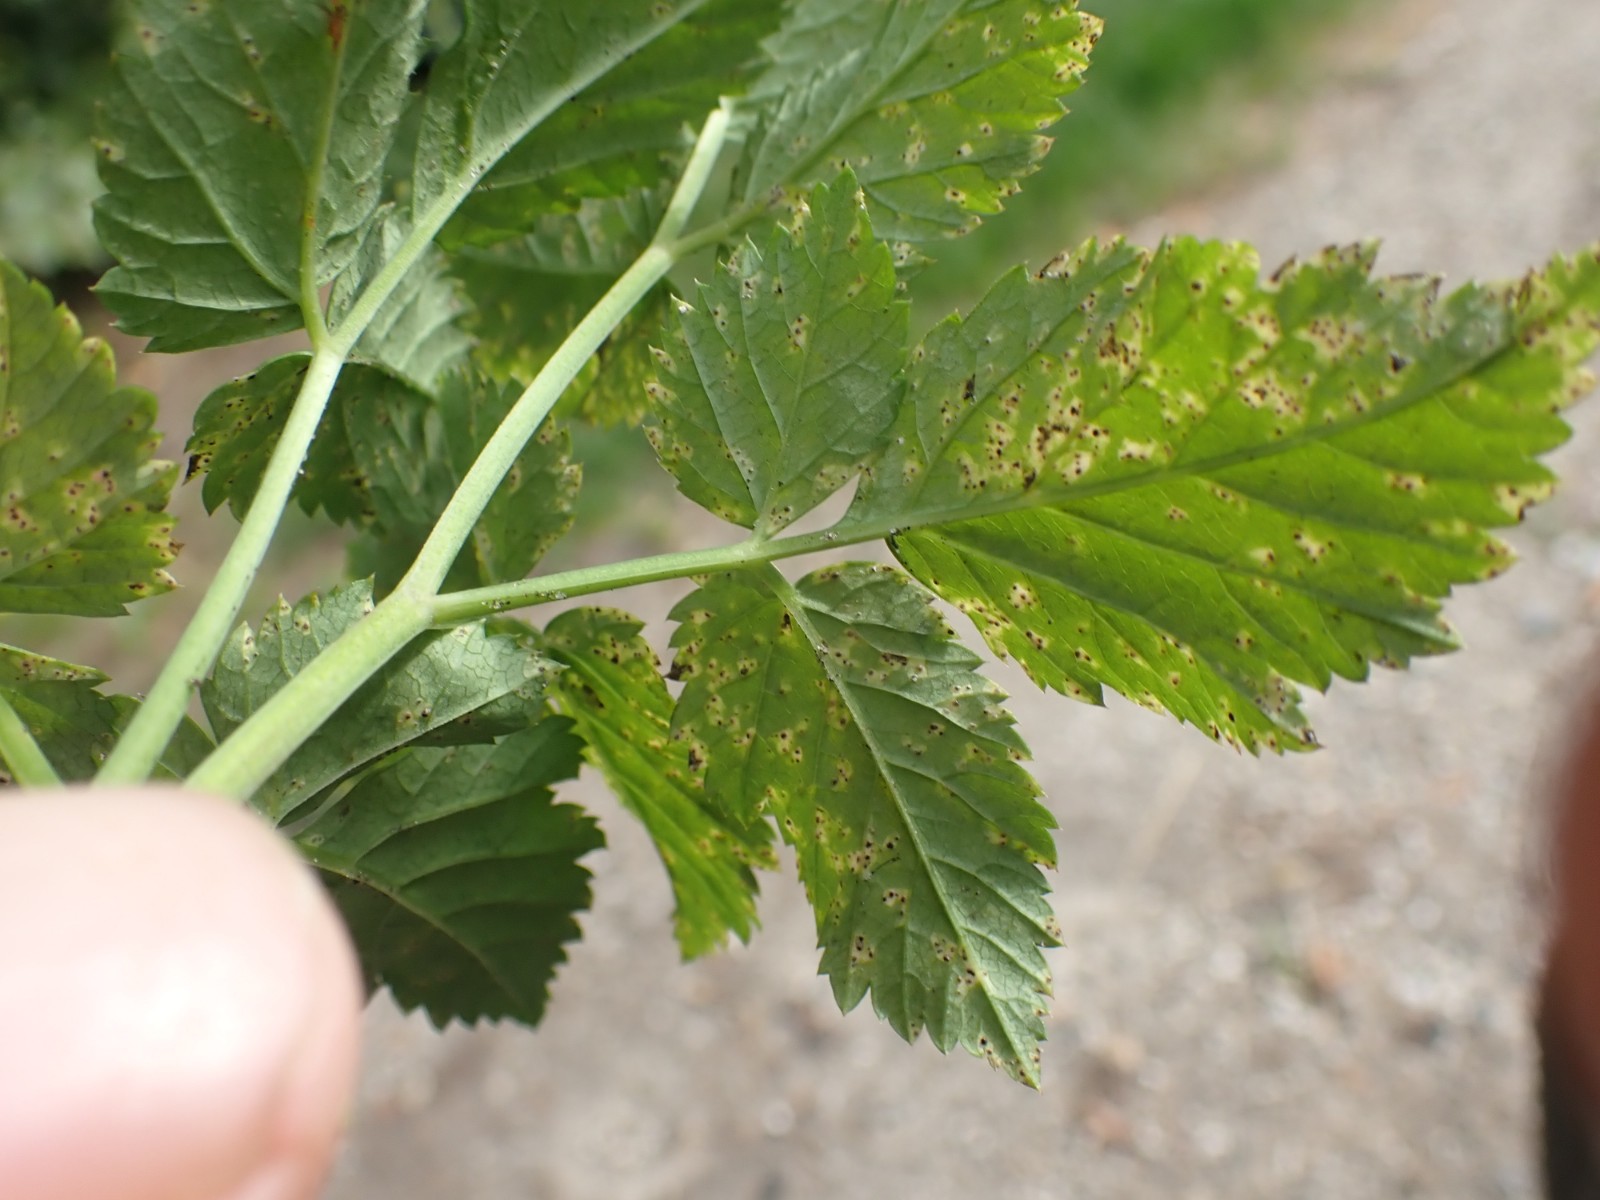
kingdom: Fungi
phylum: Ascomycota
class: Dothideomycetes
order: Mycosphaerellales
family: Mycosphaerellaceae
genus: Mycosphaerella
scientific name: Mycosphaerella podagrariae
